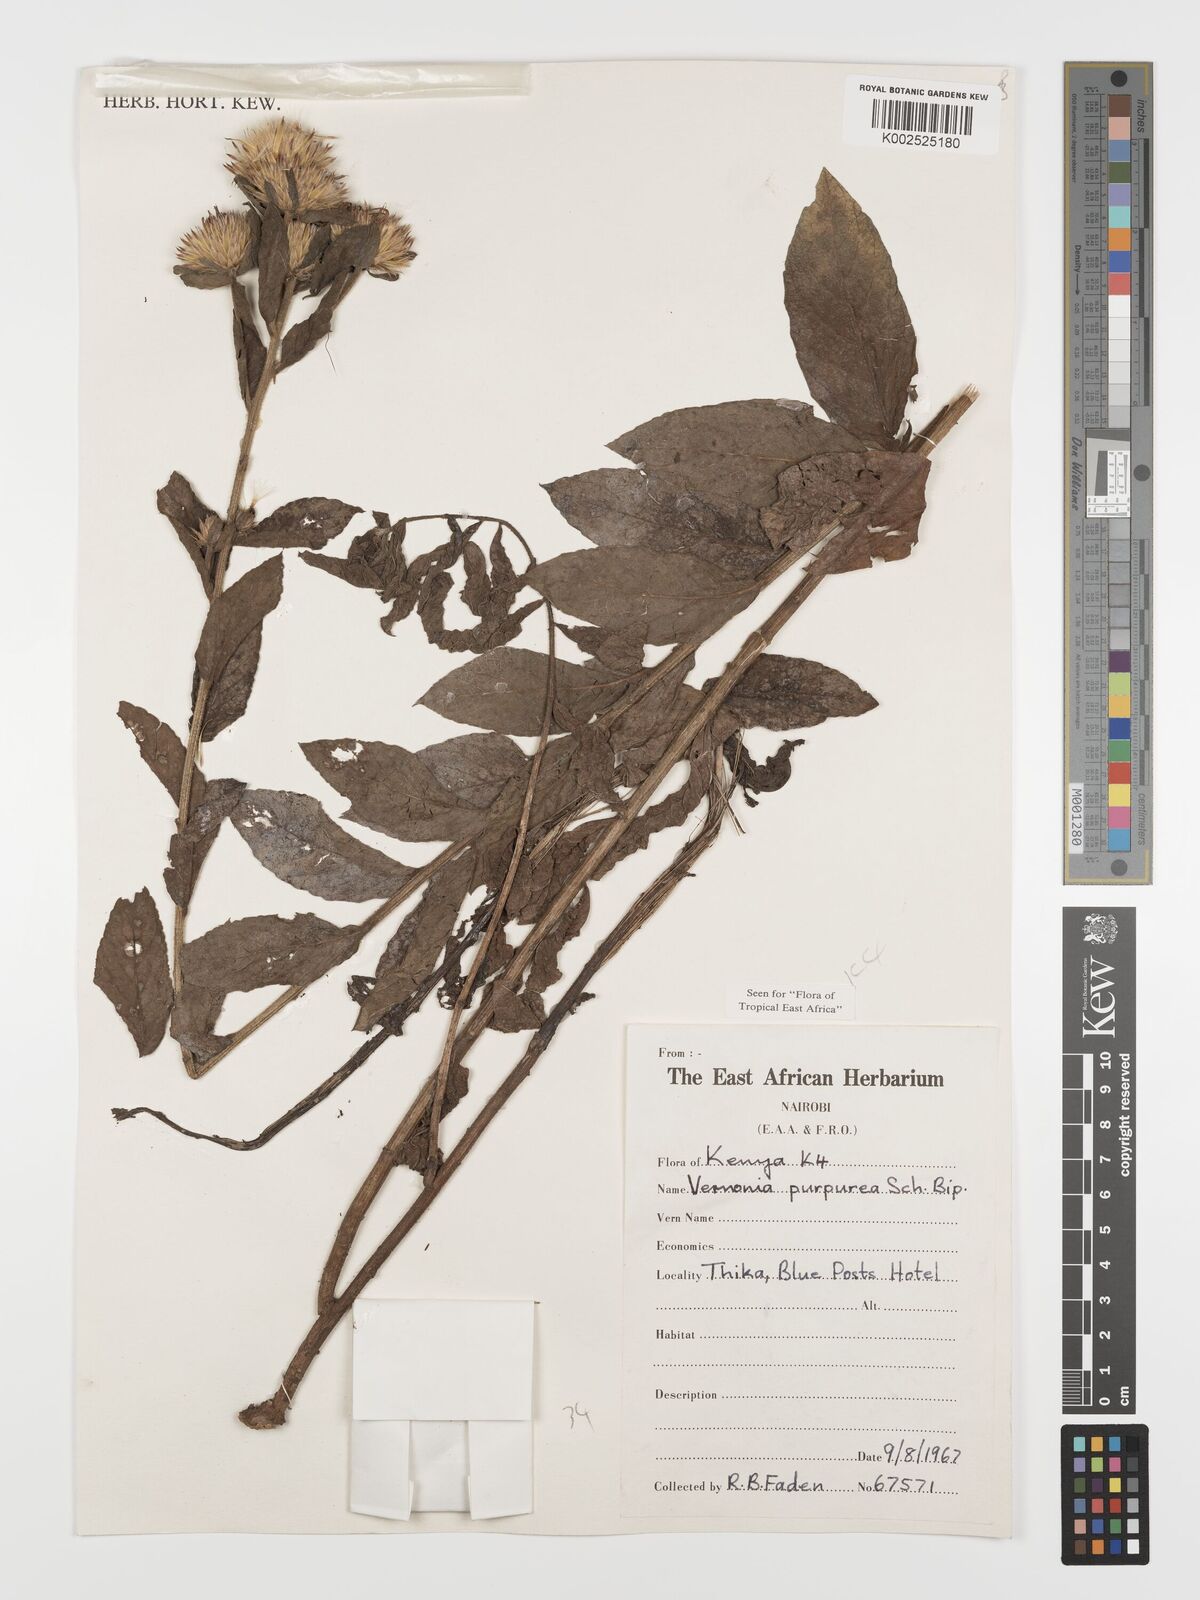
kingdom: Plantae
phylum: Tracheophyta
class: Magnoliopsida
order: Asterales
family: Asteraceae
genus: Nothovernonia
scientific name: Nothovernonia purpurea
